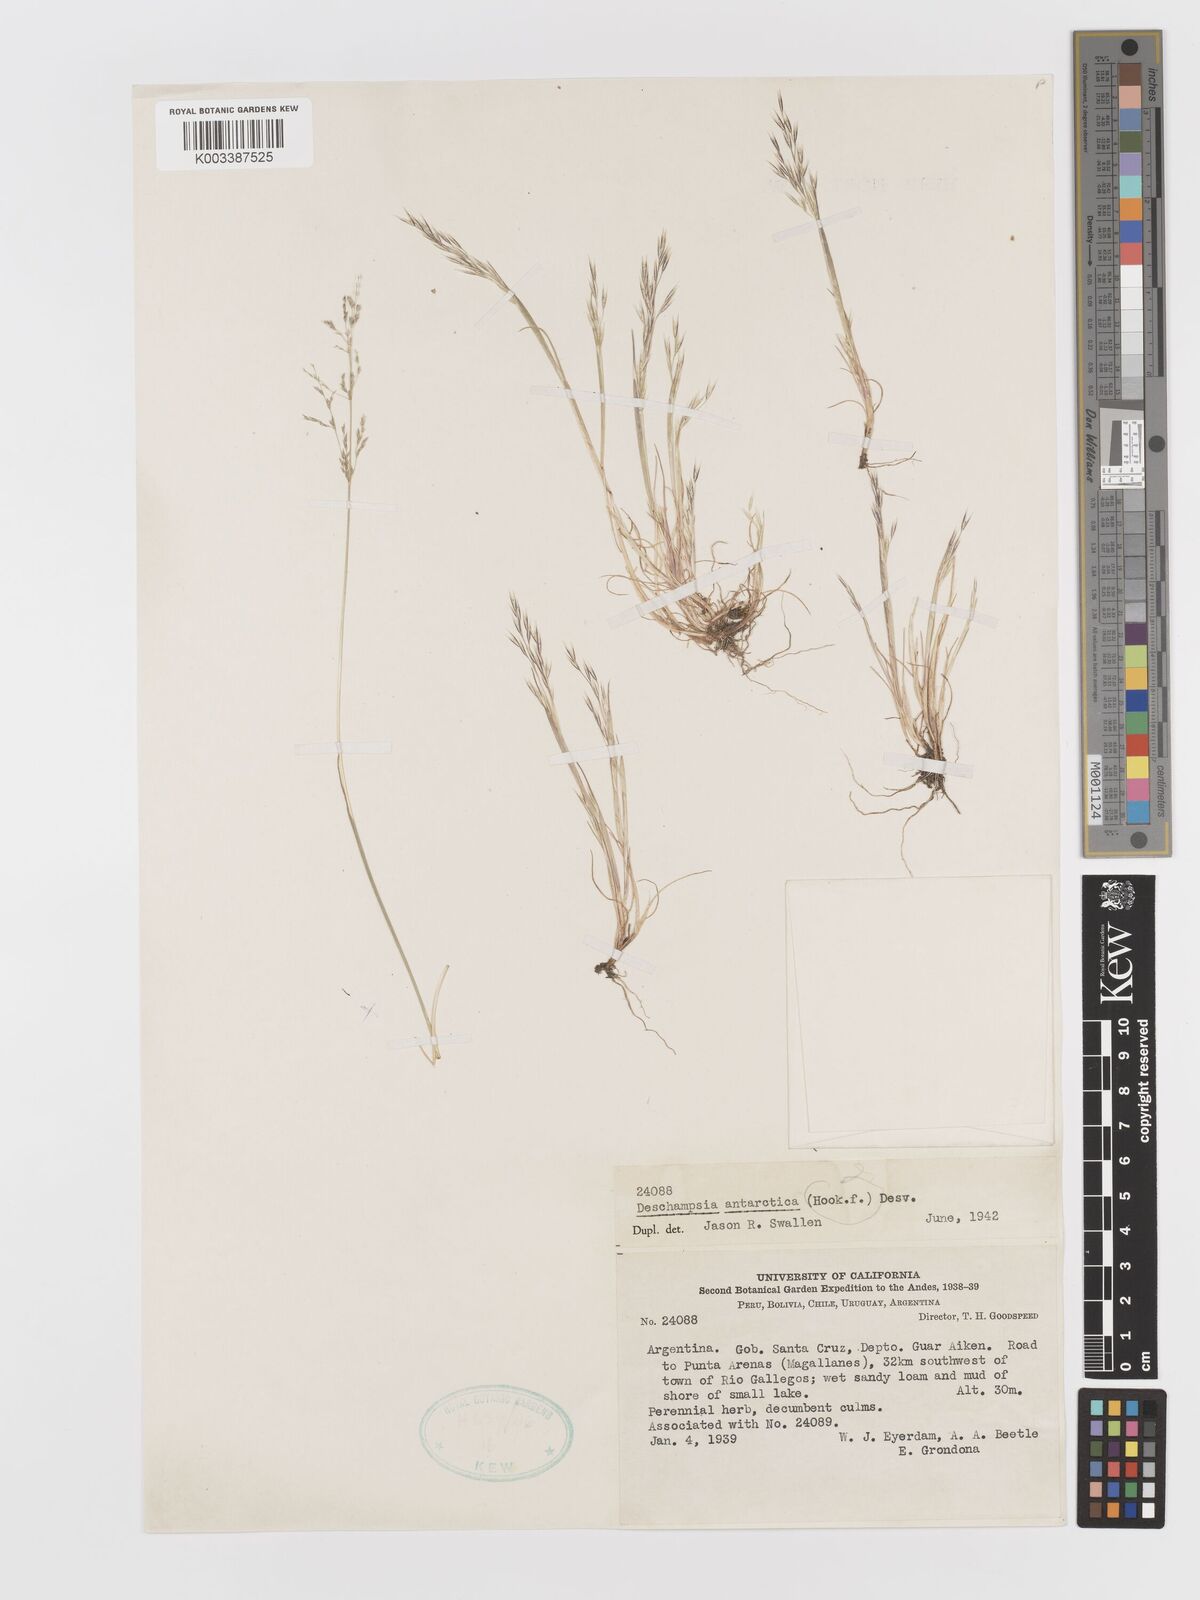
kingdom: Plantae
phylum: Tracheophyta
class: Liliopsida
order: Poales
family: Poaceae
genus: Deschampsia
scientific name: Deschampsia antarctica
